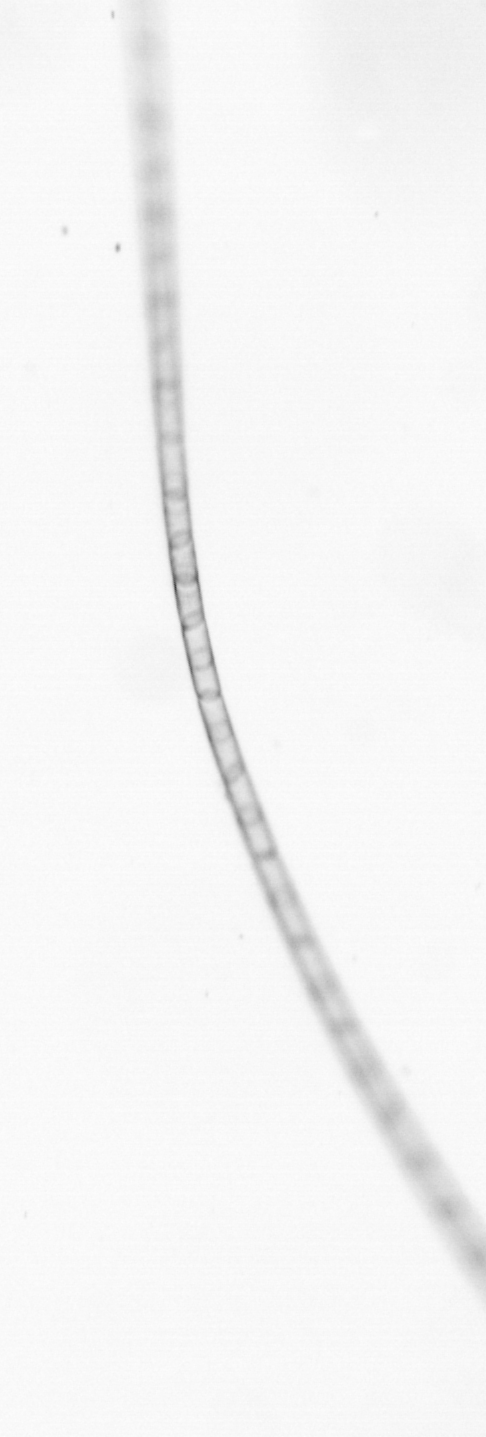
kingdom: Chromista
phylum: Ochrophyta
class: Bacillariophyceae
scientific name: Bacillariophyceae
